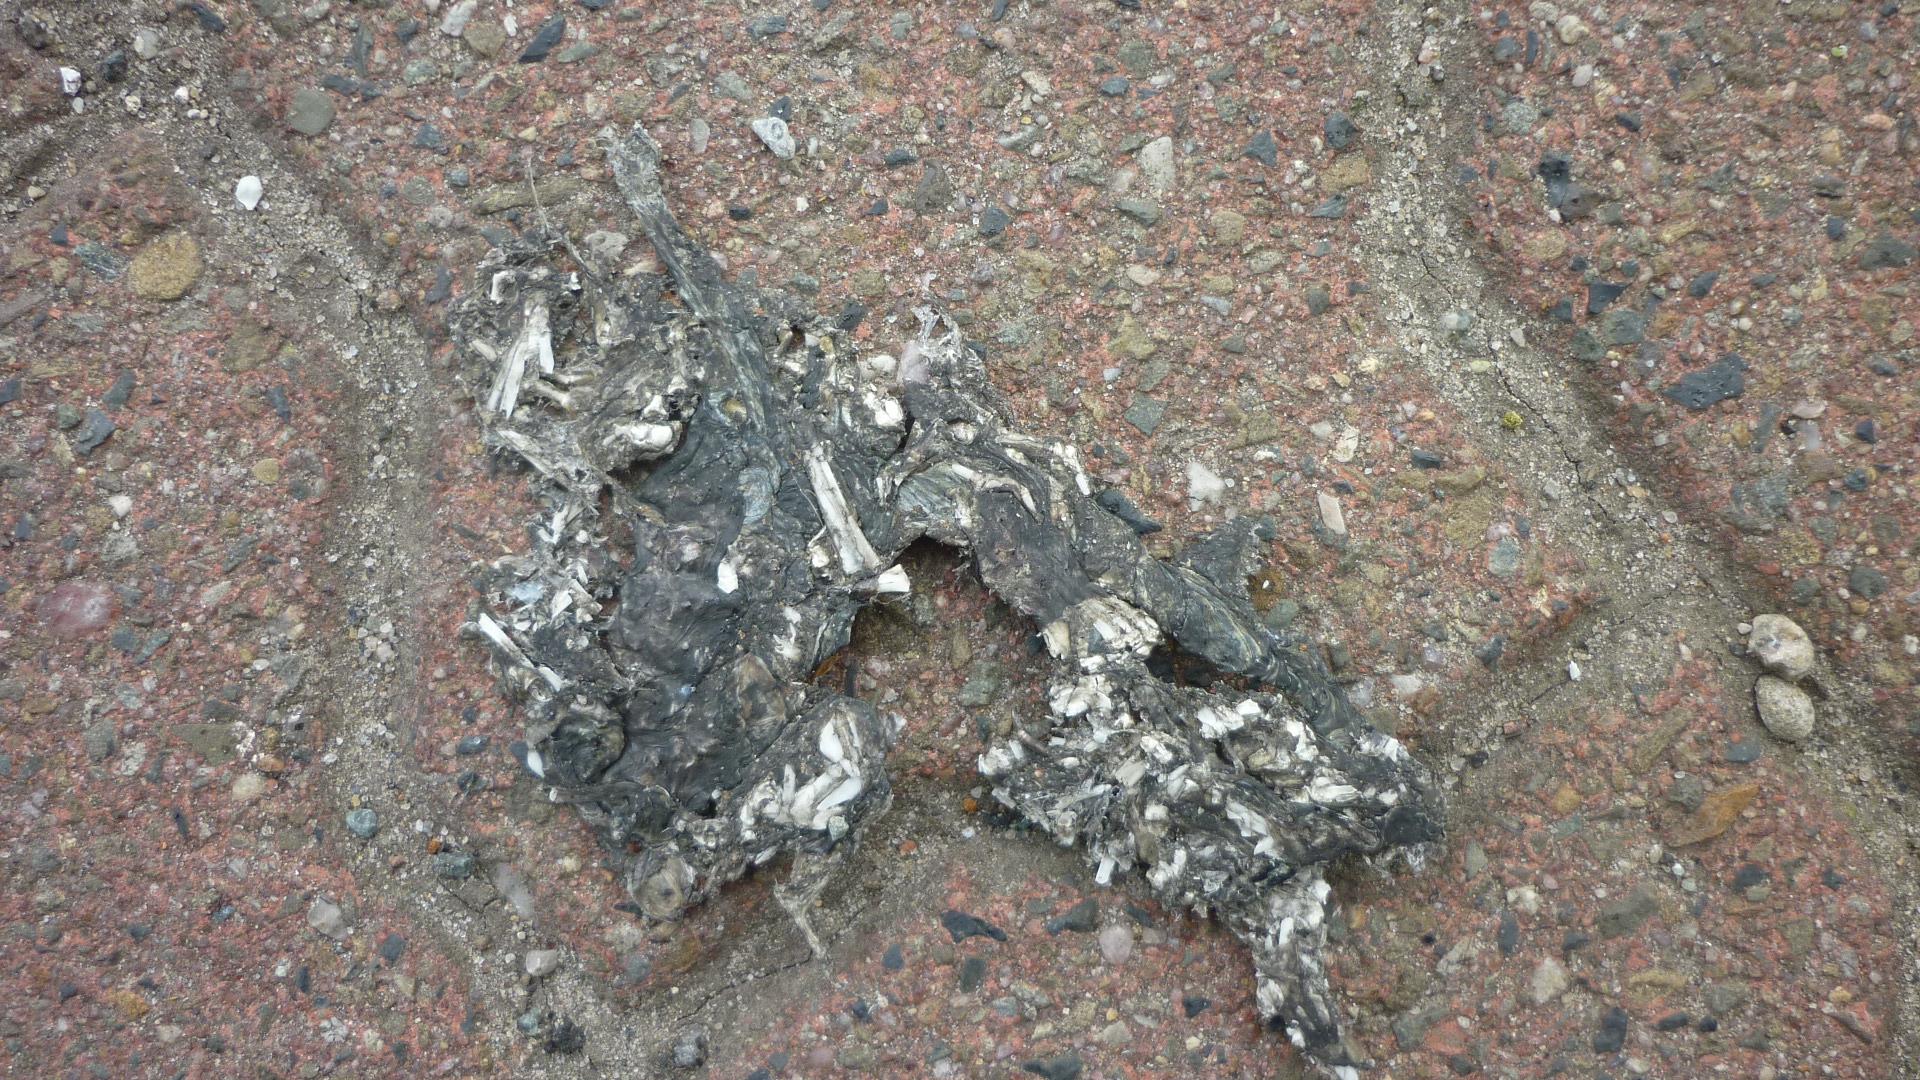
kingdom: Animalia
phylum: Chordata
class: Amphibia
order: Anura
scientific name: Anura
